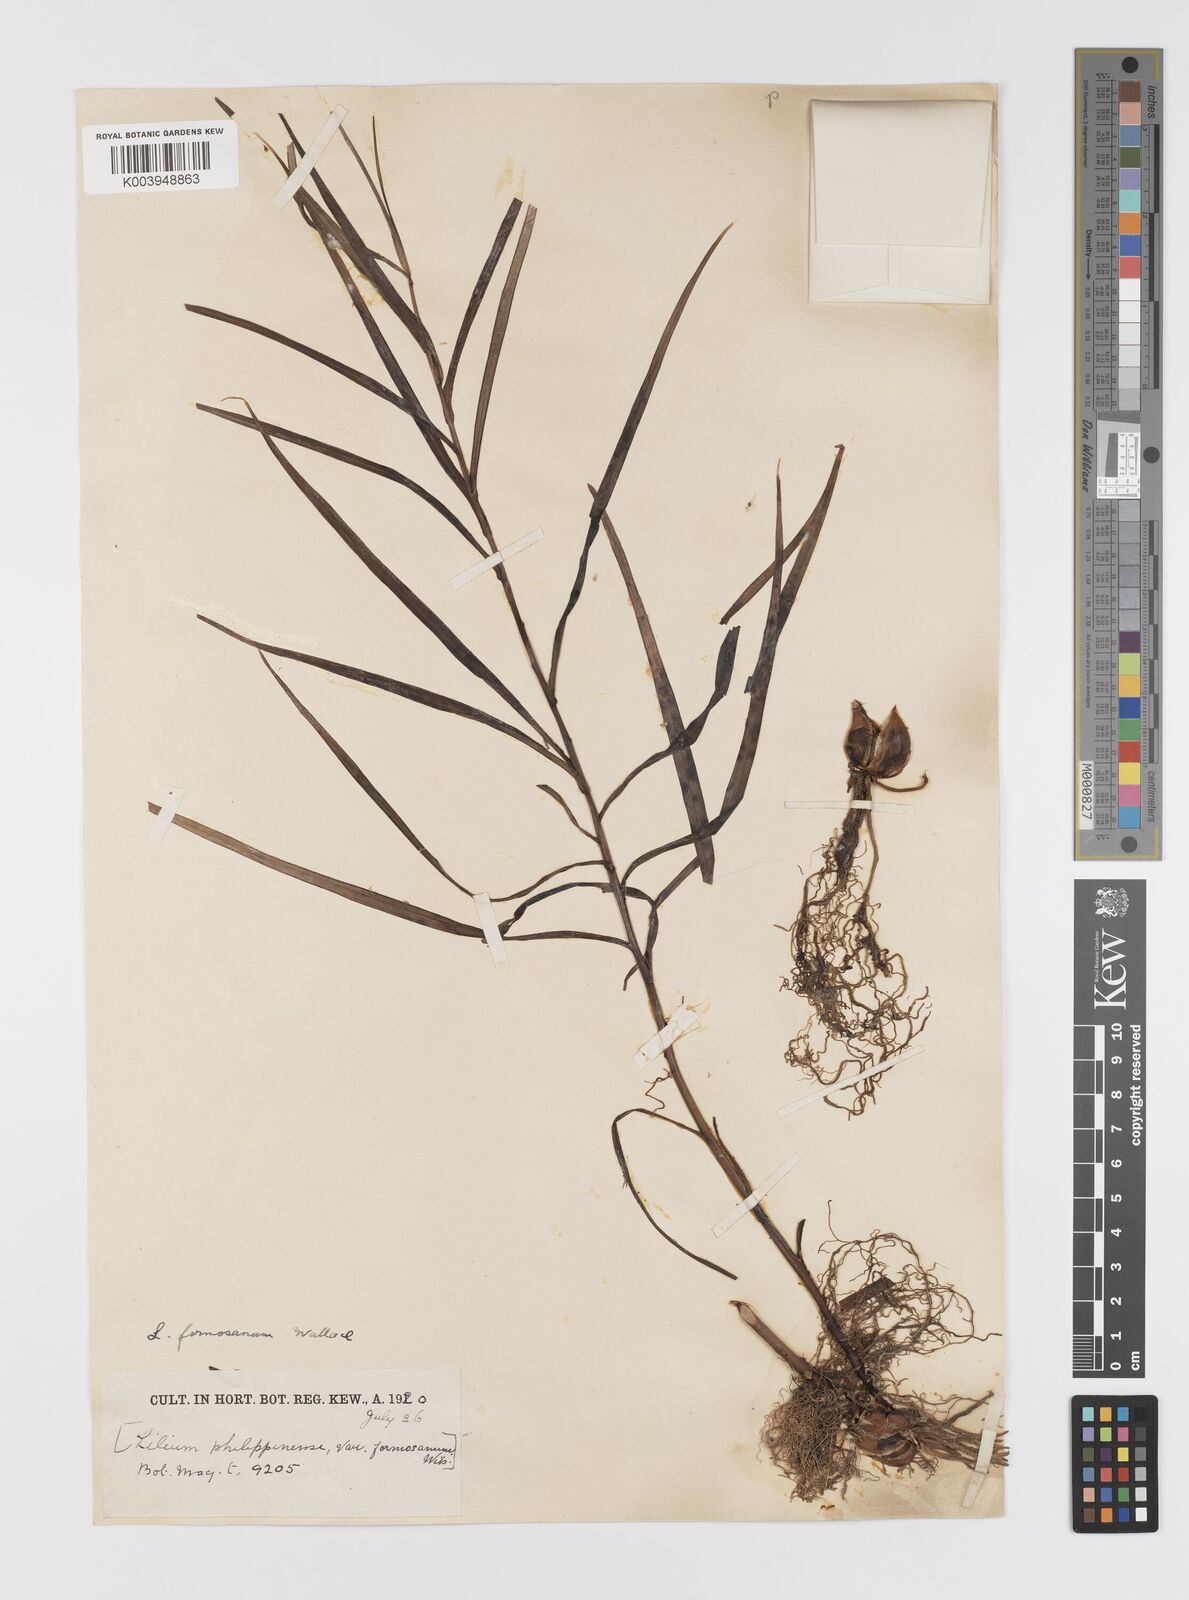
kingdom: Plantae
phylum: Tracheophyta
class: Liliopsida
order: Liliales
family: Liliaceae
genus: Lilium
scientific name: Lilium formosanum
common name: Formosa lily
